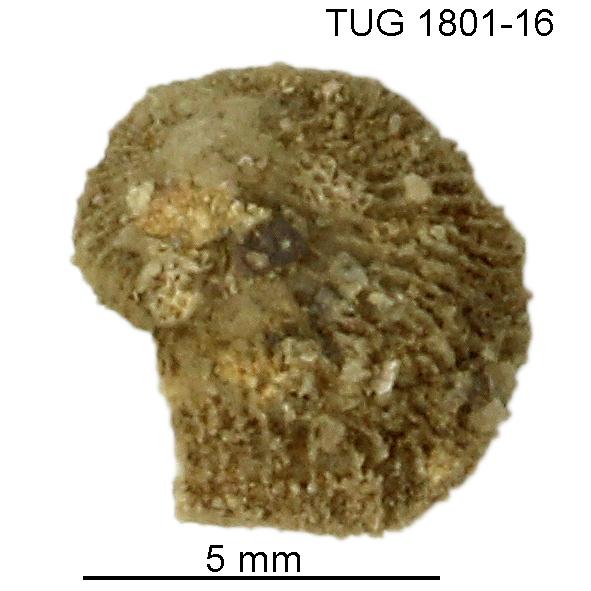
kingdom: Animalia
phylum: Brachiopoda
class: Craniata
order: Craniida
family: Craniidae
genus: Philhedra
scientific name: Philhedra
